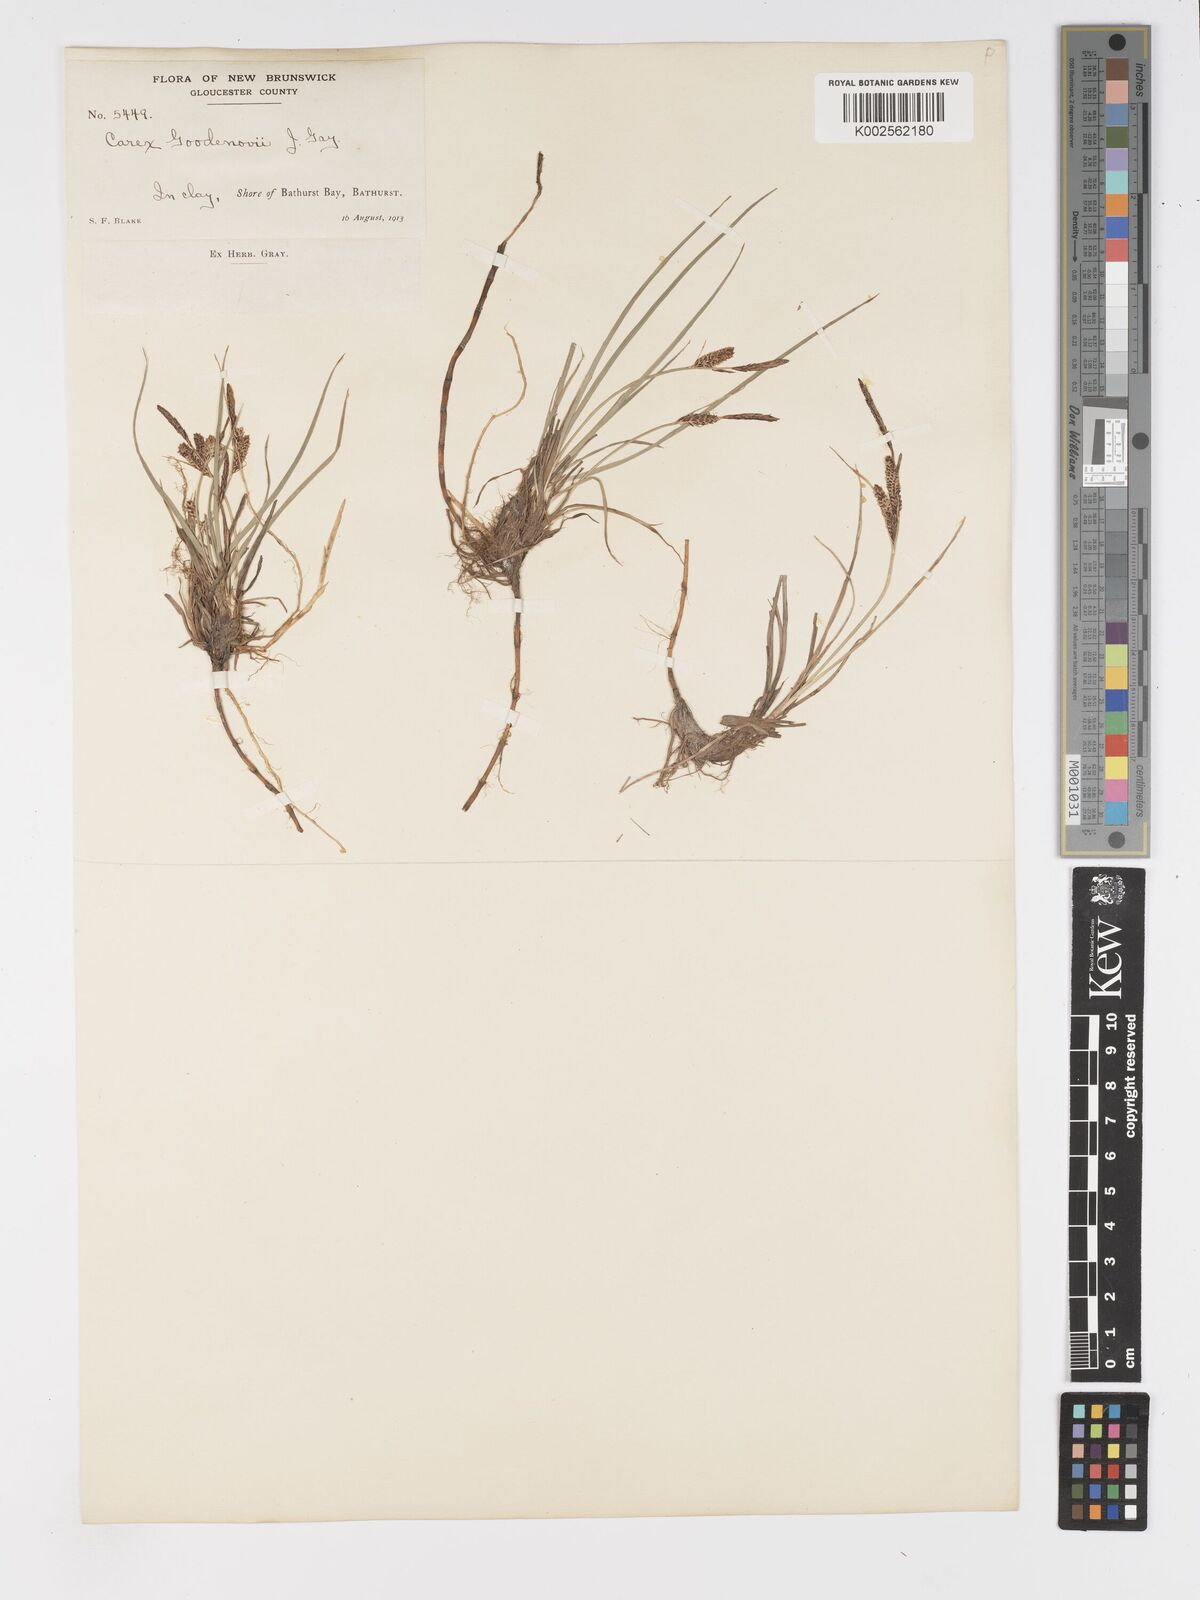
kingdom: Plantae
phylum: Tracheophyta
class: Liliopsida
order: Poales
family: Cyperaceae
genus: Carex
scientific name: Carex nigra
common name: Common sedge
